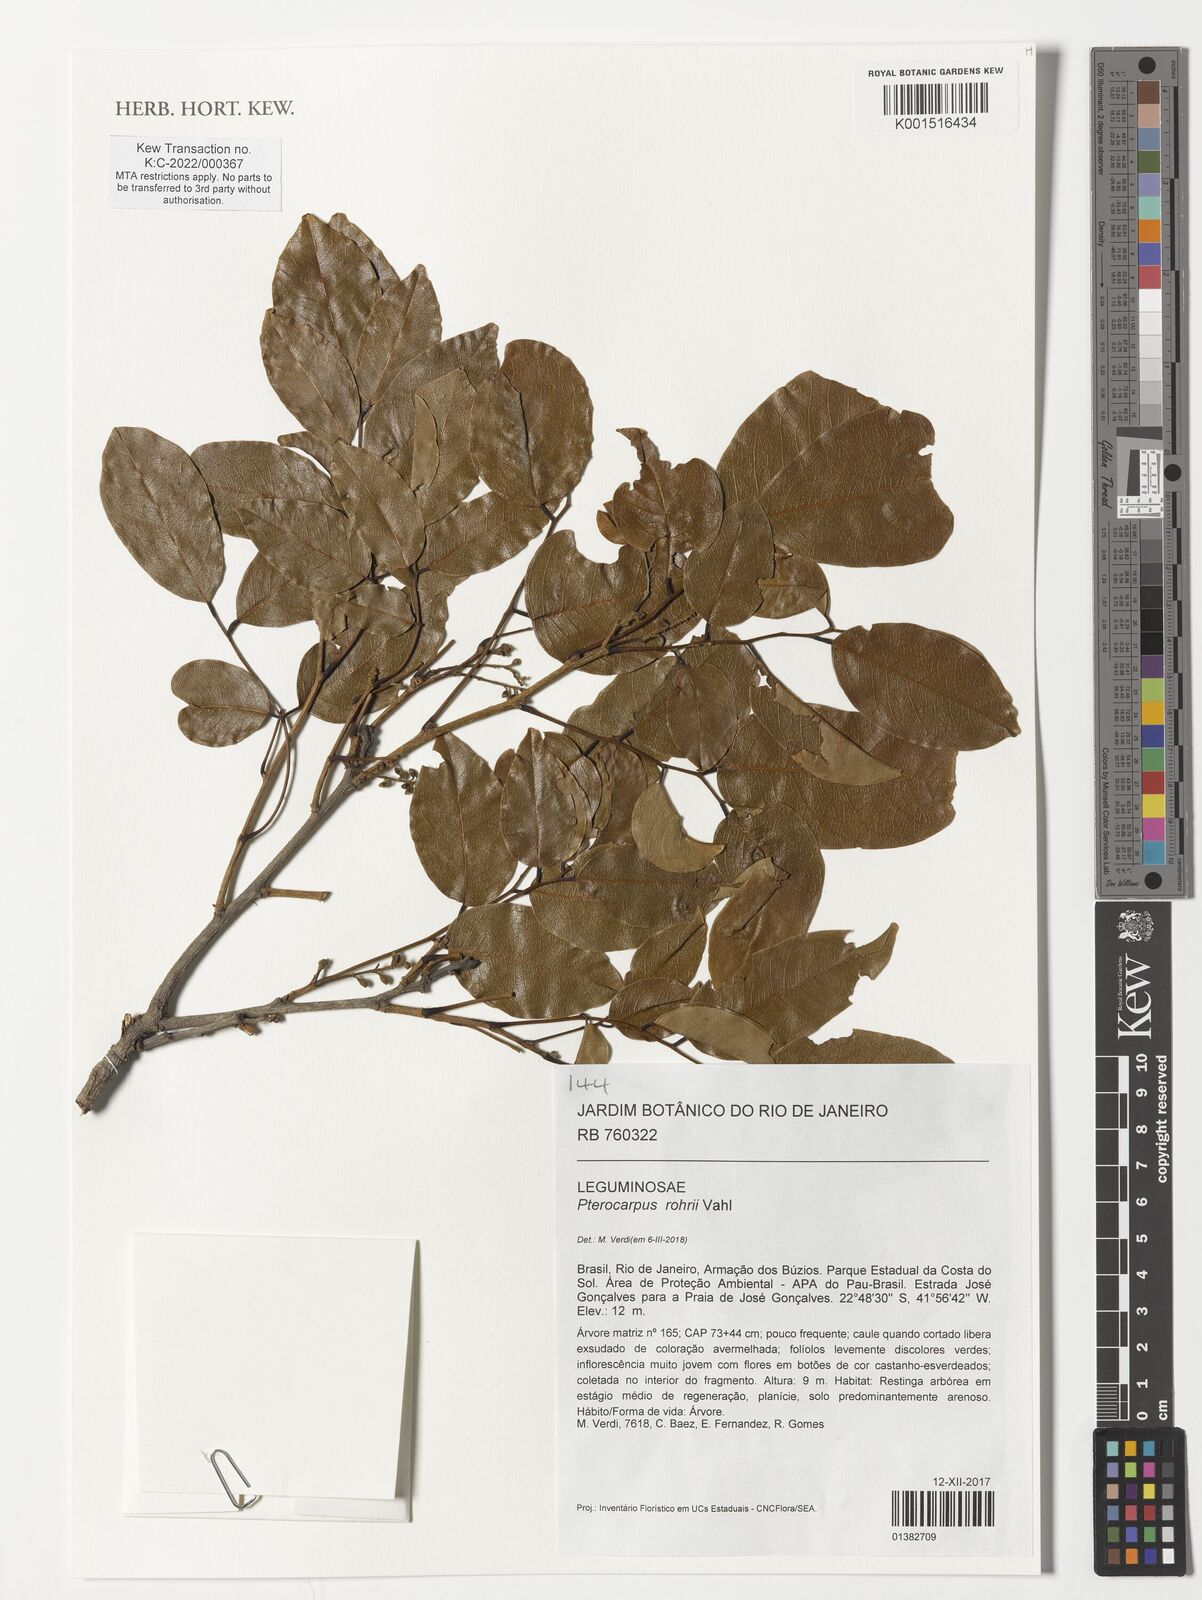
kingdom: Plantae
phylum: Tracheophyta
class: Magnoliopsida
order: Fabales
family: Fabaceae
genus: Pterocarpus
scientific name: Pterocarpus rohrii
